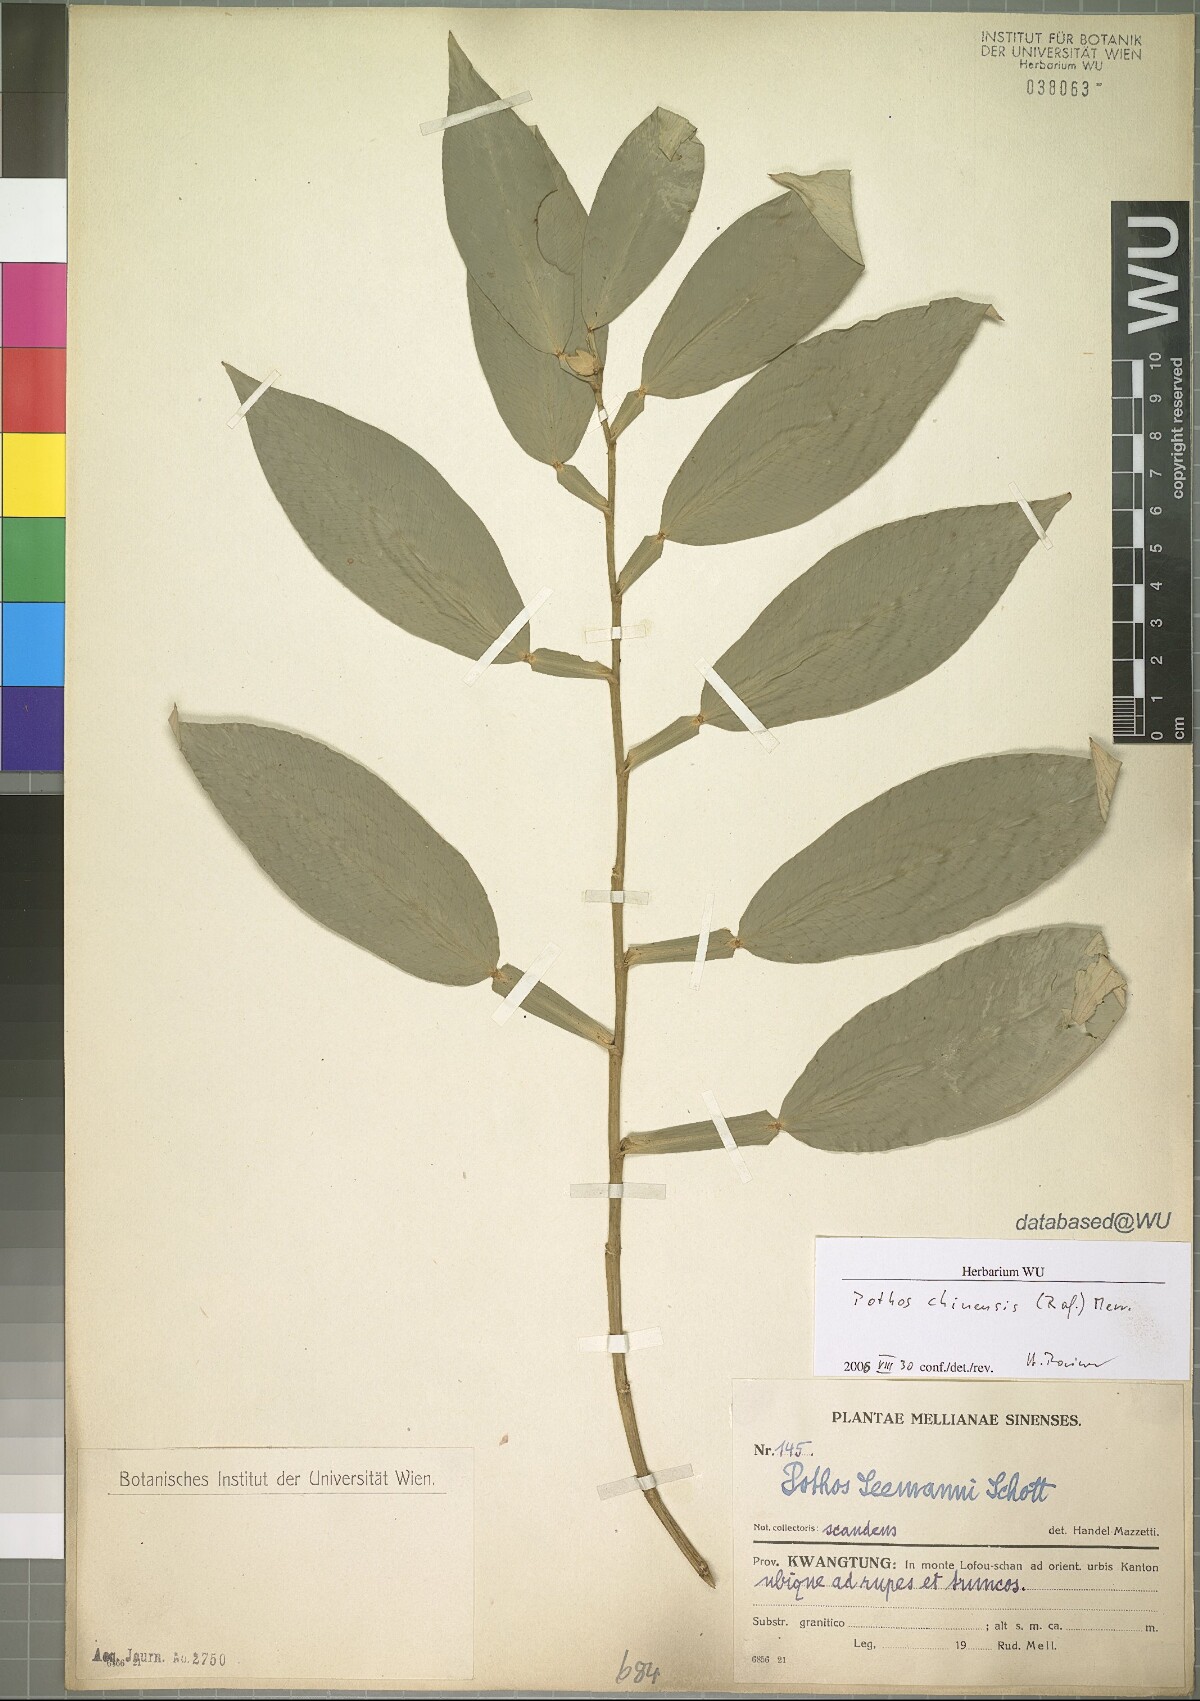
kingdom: Plantae
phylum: Tracheophyta
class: Liliopsida
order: Alismatales
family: Araceae
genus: Pothos
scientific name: Pothos chinensis
